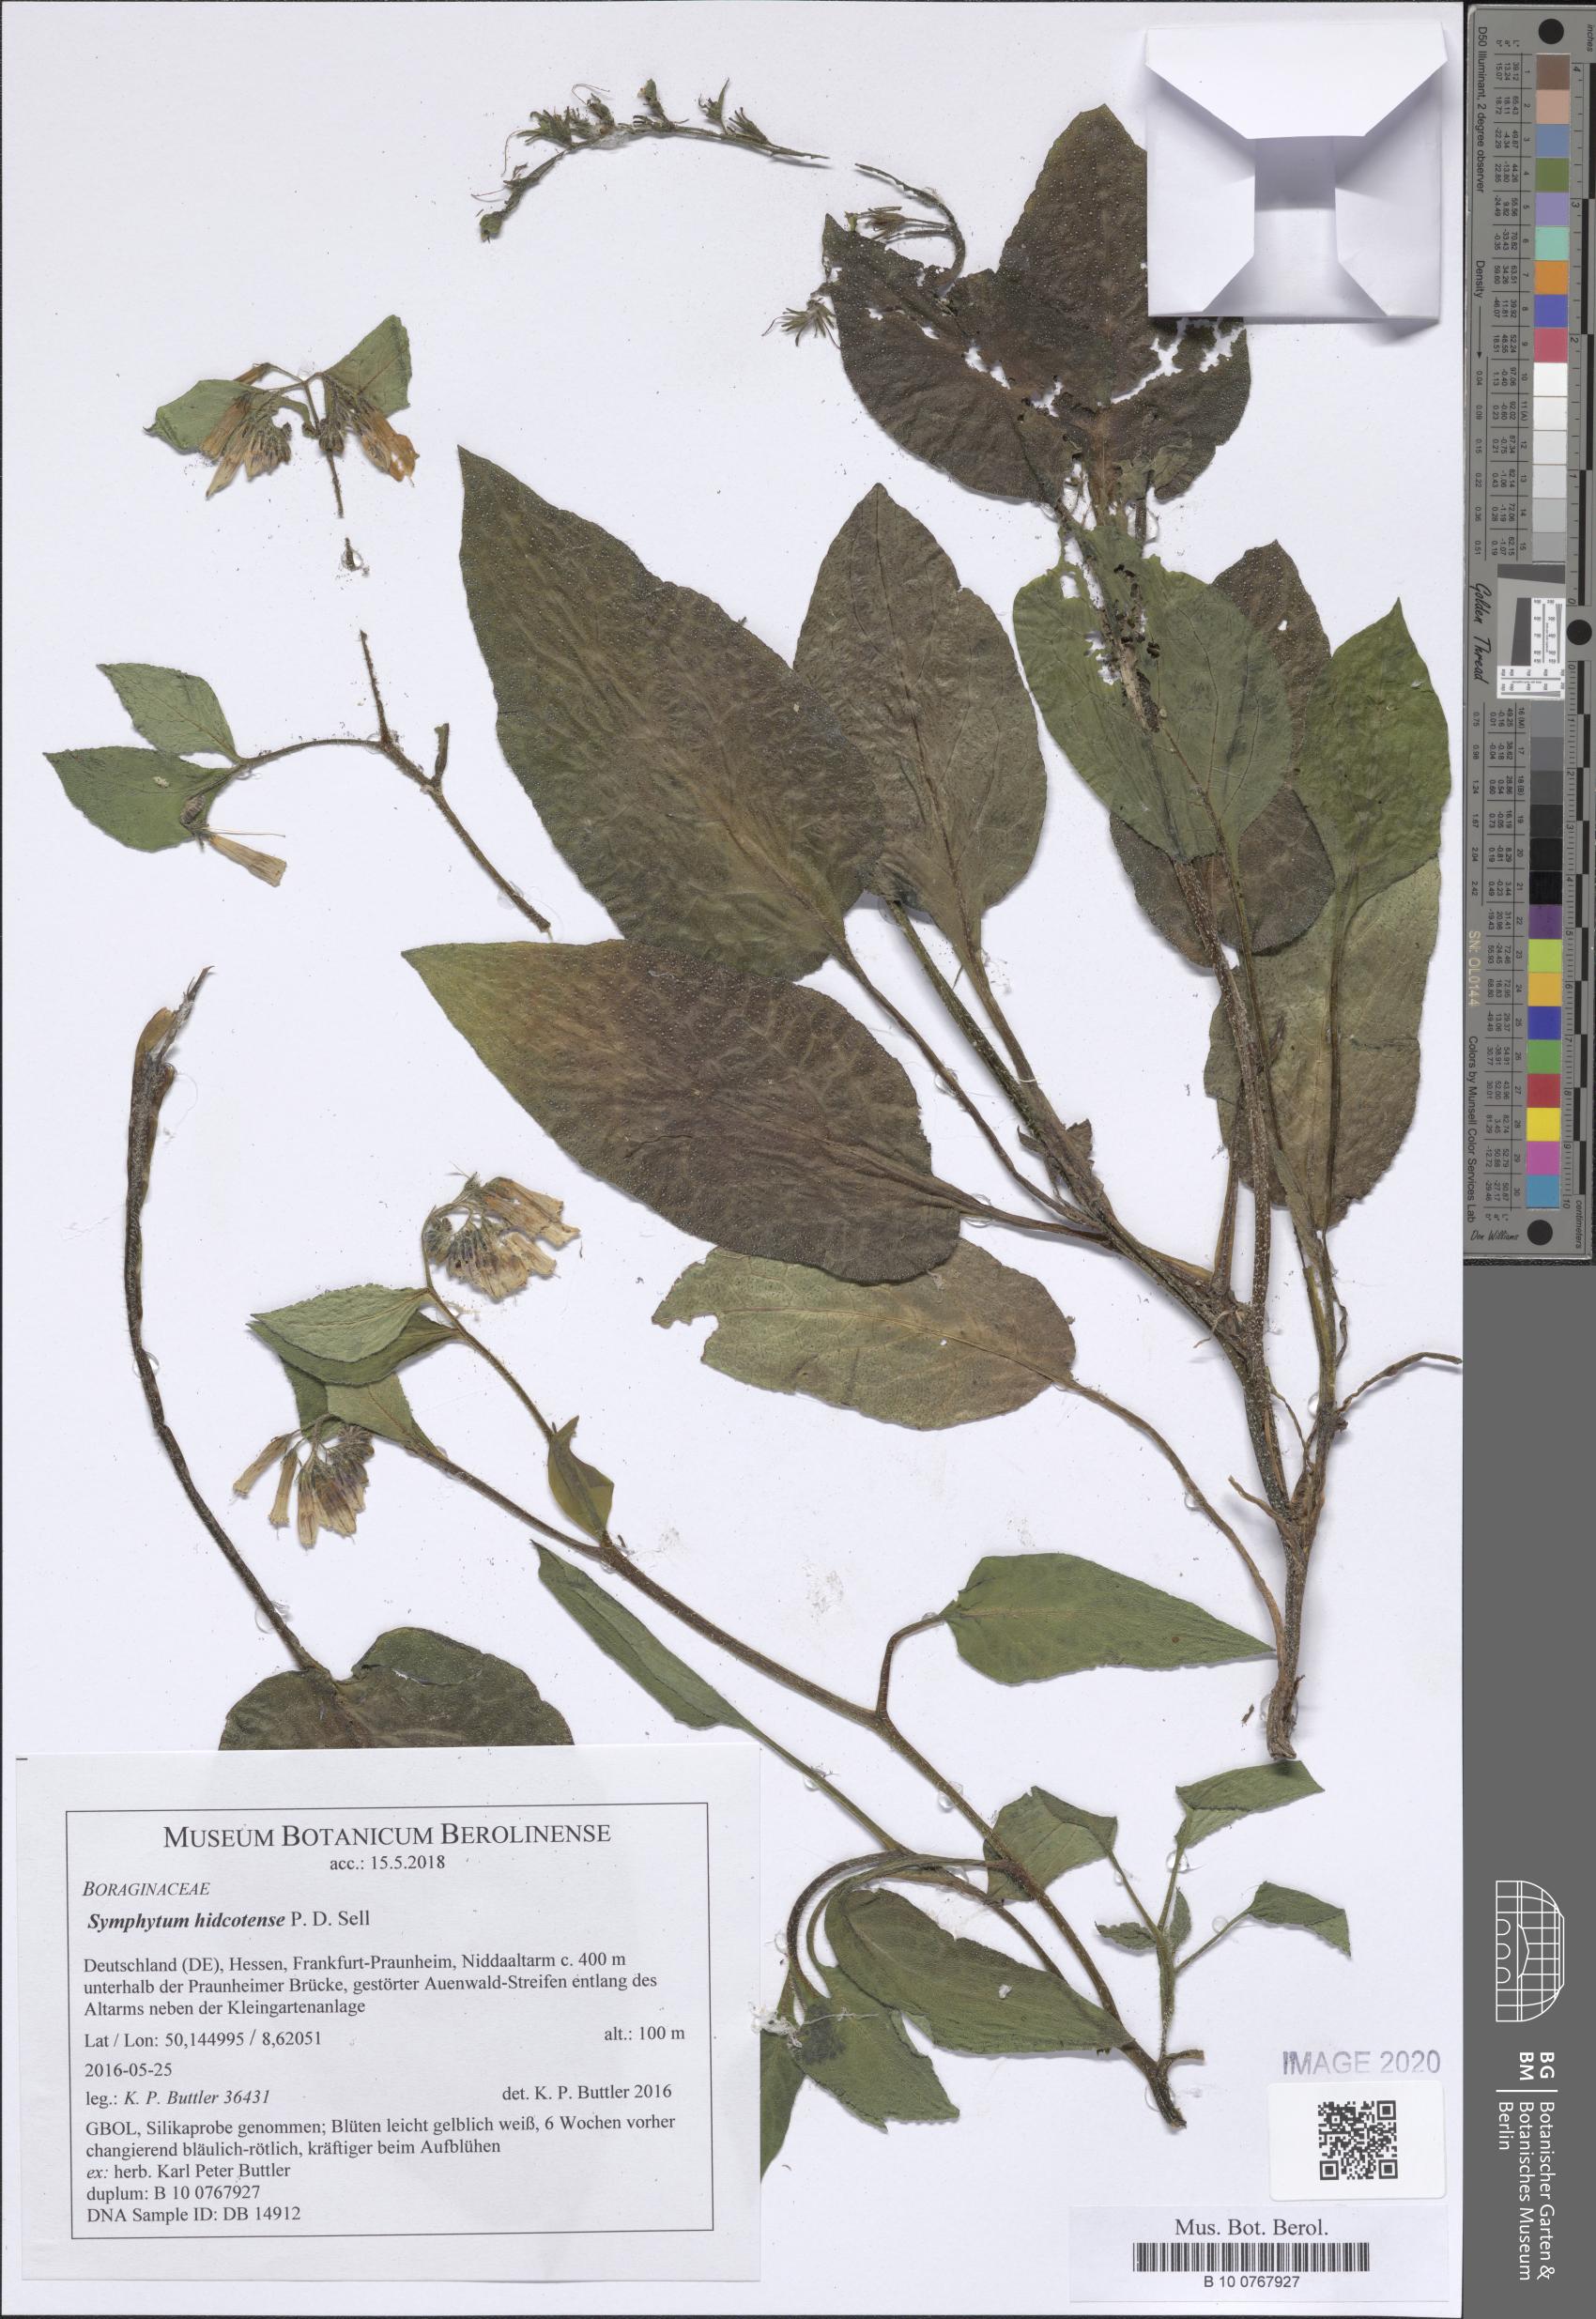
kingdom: Plantae
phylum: Tracheophyta
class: Magnoliopsida
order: Boraginales
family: Boraginaceae
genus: Symphytum
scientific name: Symphytum hidcotense
